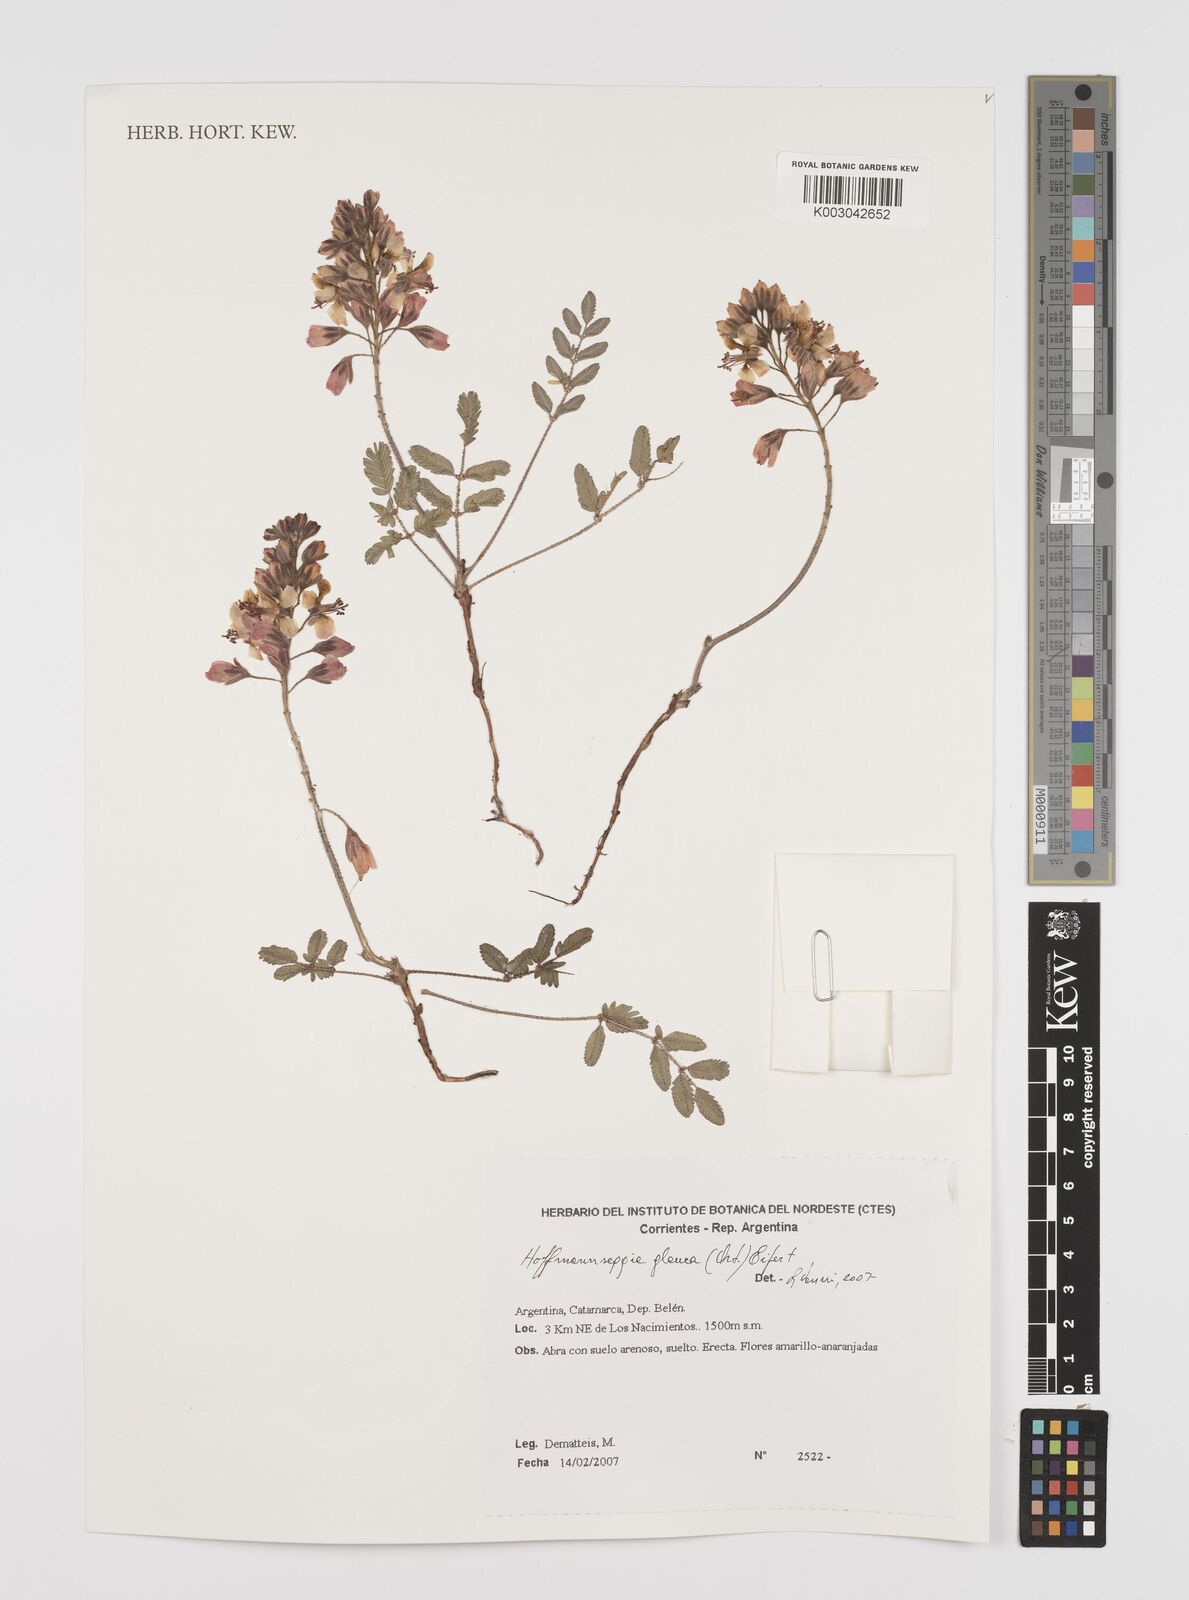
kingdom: Plantae
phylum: Tracheophyta
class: Magnoliopsida
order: Fabales
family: Fabaceae
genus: Hoffmannseggia
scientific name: Hoffmannseggia glauca
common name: Pignut
